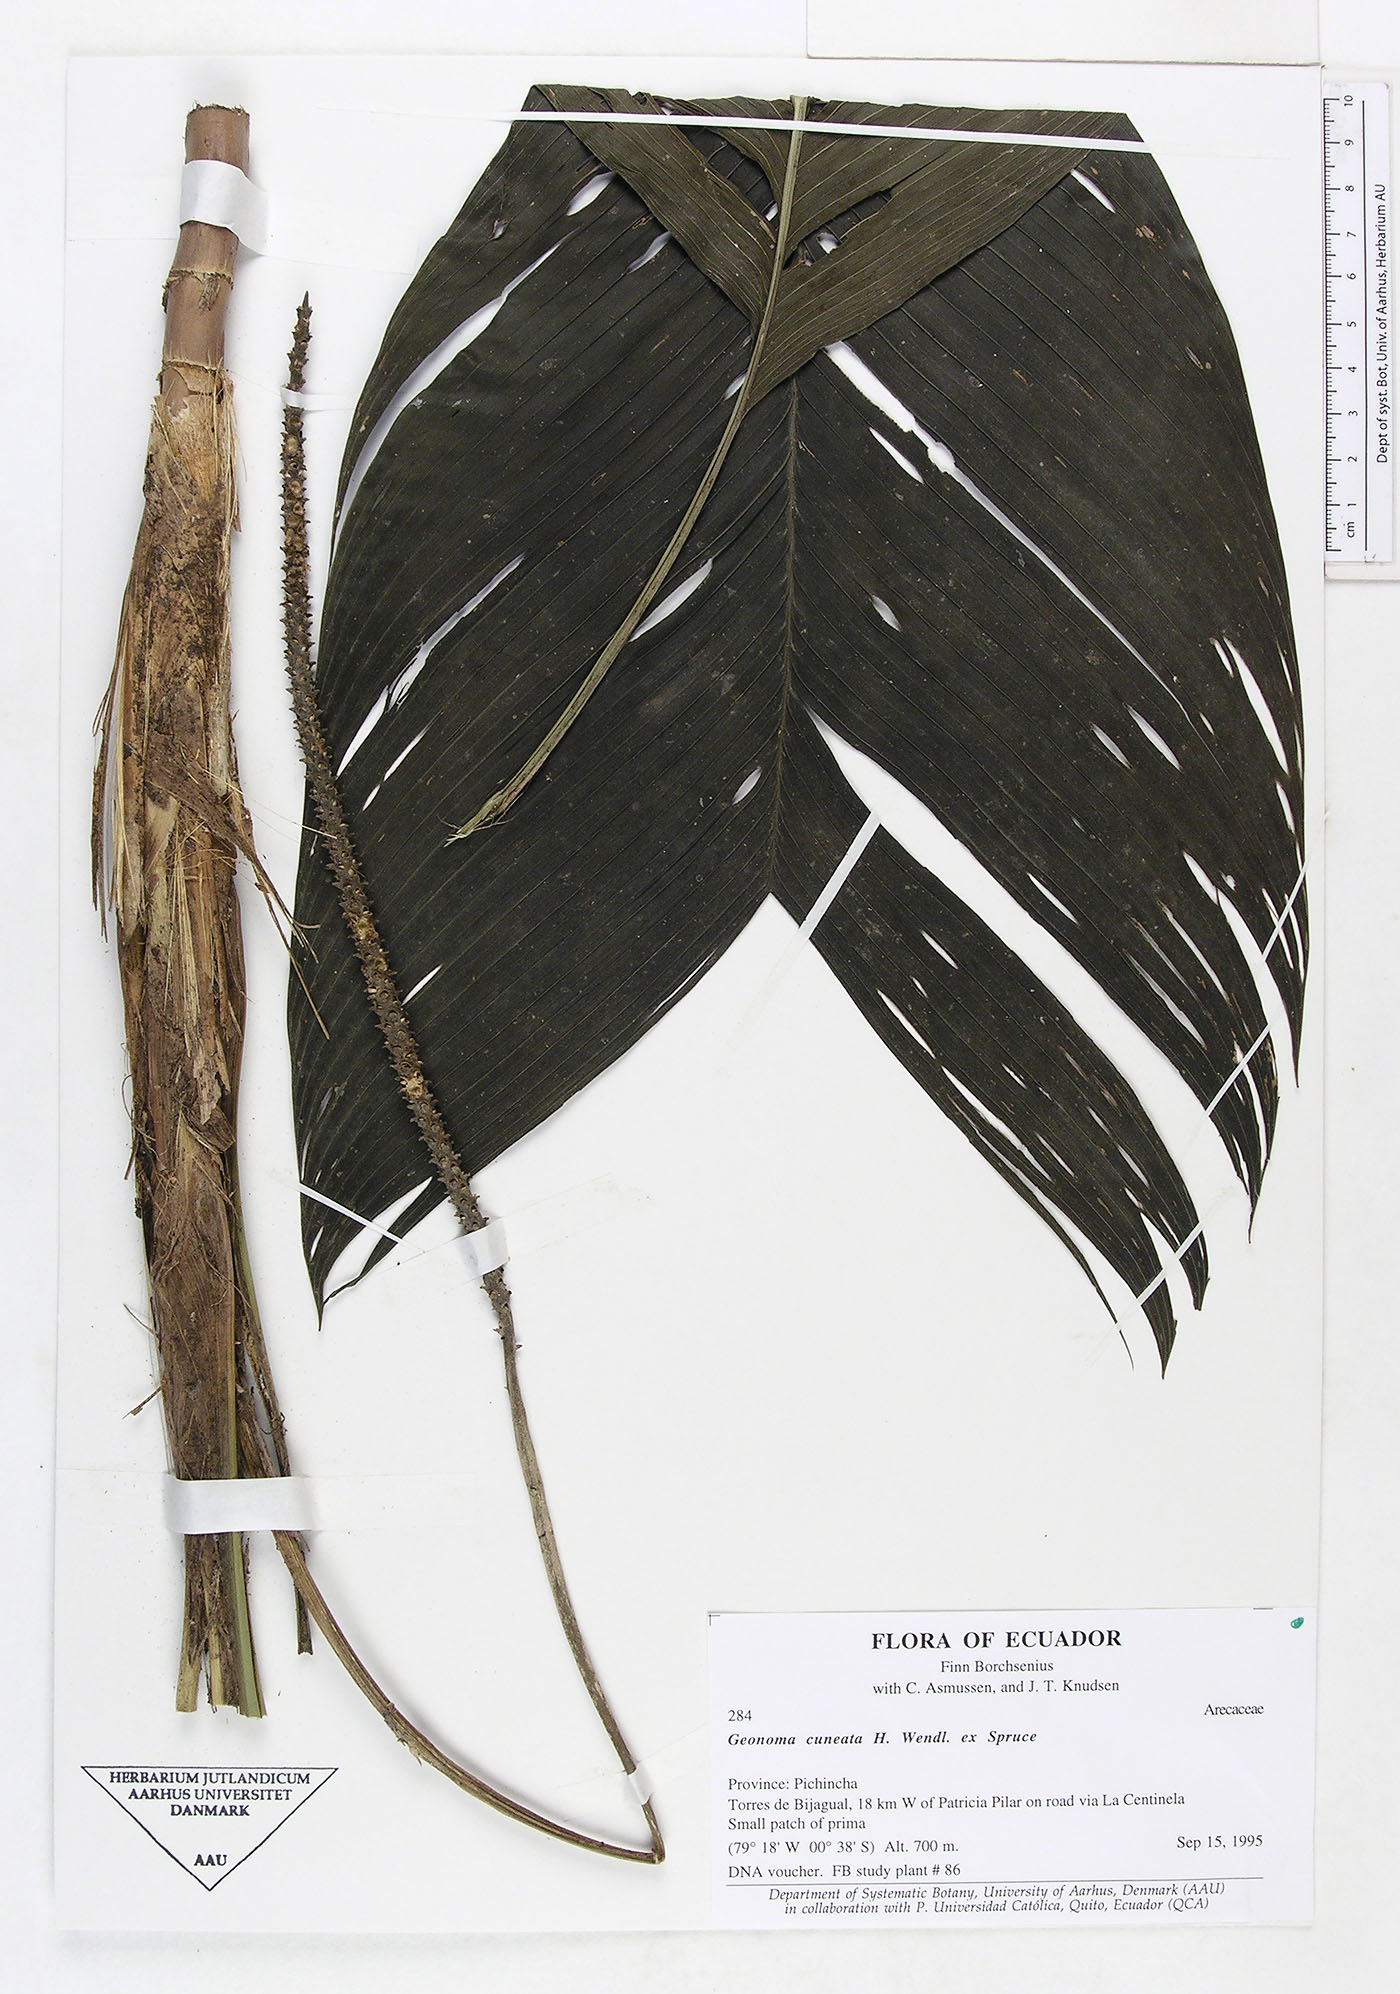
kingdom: Plantae
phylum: Tracheophyta
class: Liliopsida
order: Arecales
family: Arecaceae
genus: Geonoma
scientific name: Geonoma cuneata
